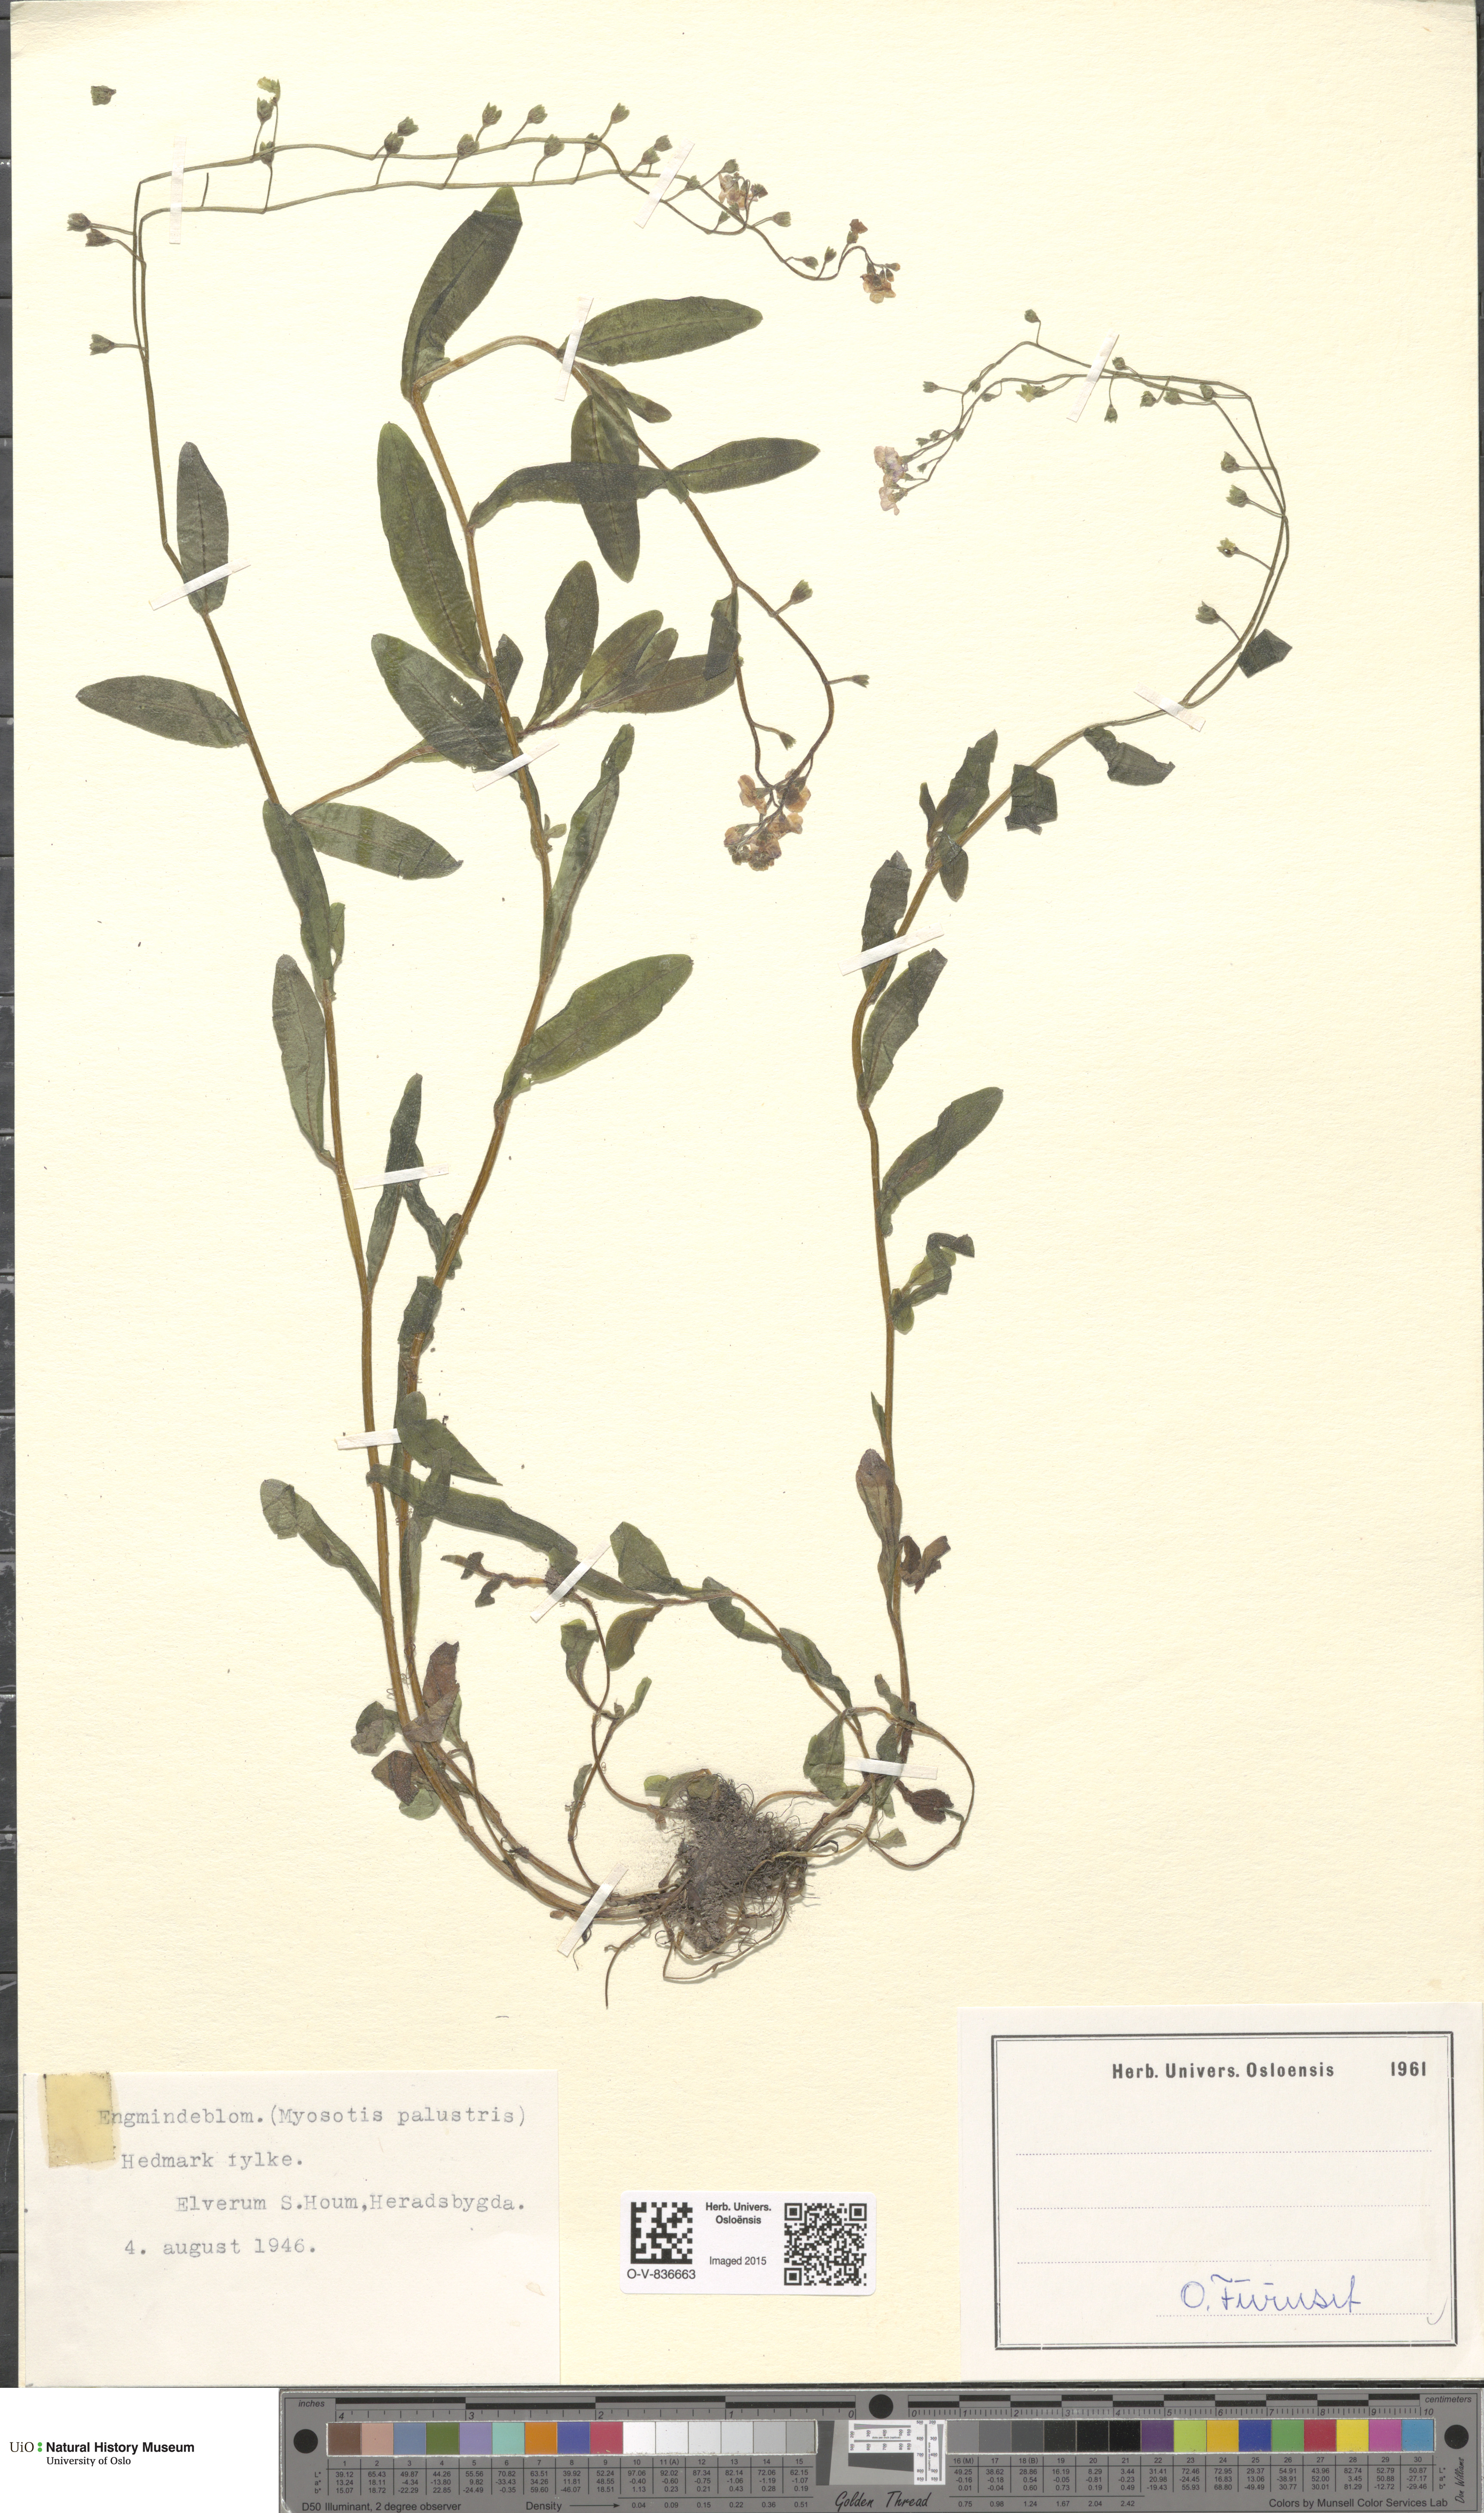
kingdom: Plantae
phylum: Tracheophyta
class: Magnoliopsida
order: Boraginales
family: Boraginaceae
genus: Myosotis
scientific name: Myosotis scorpioides
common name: Water forget-me-not
